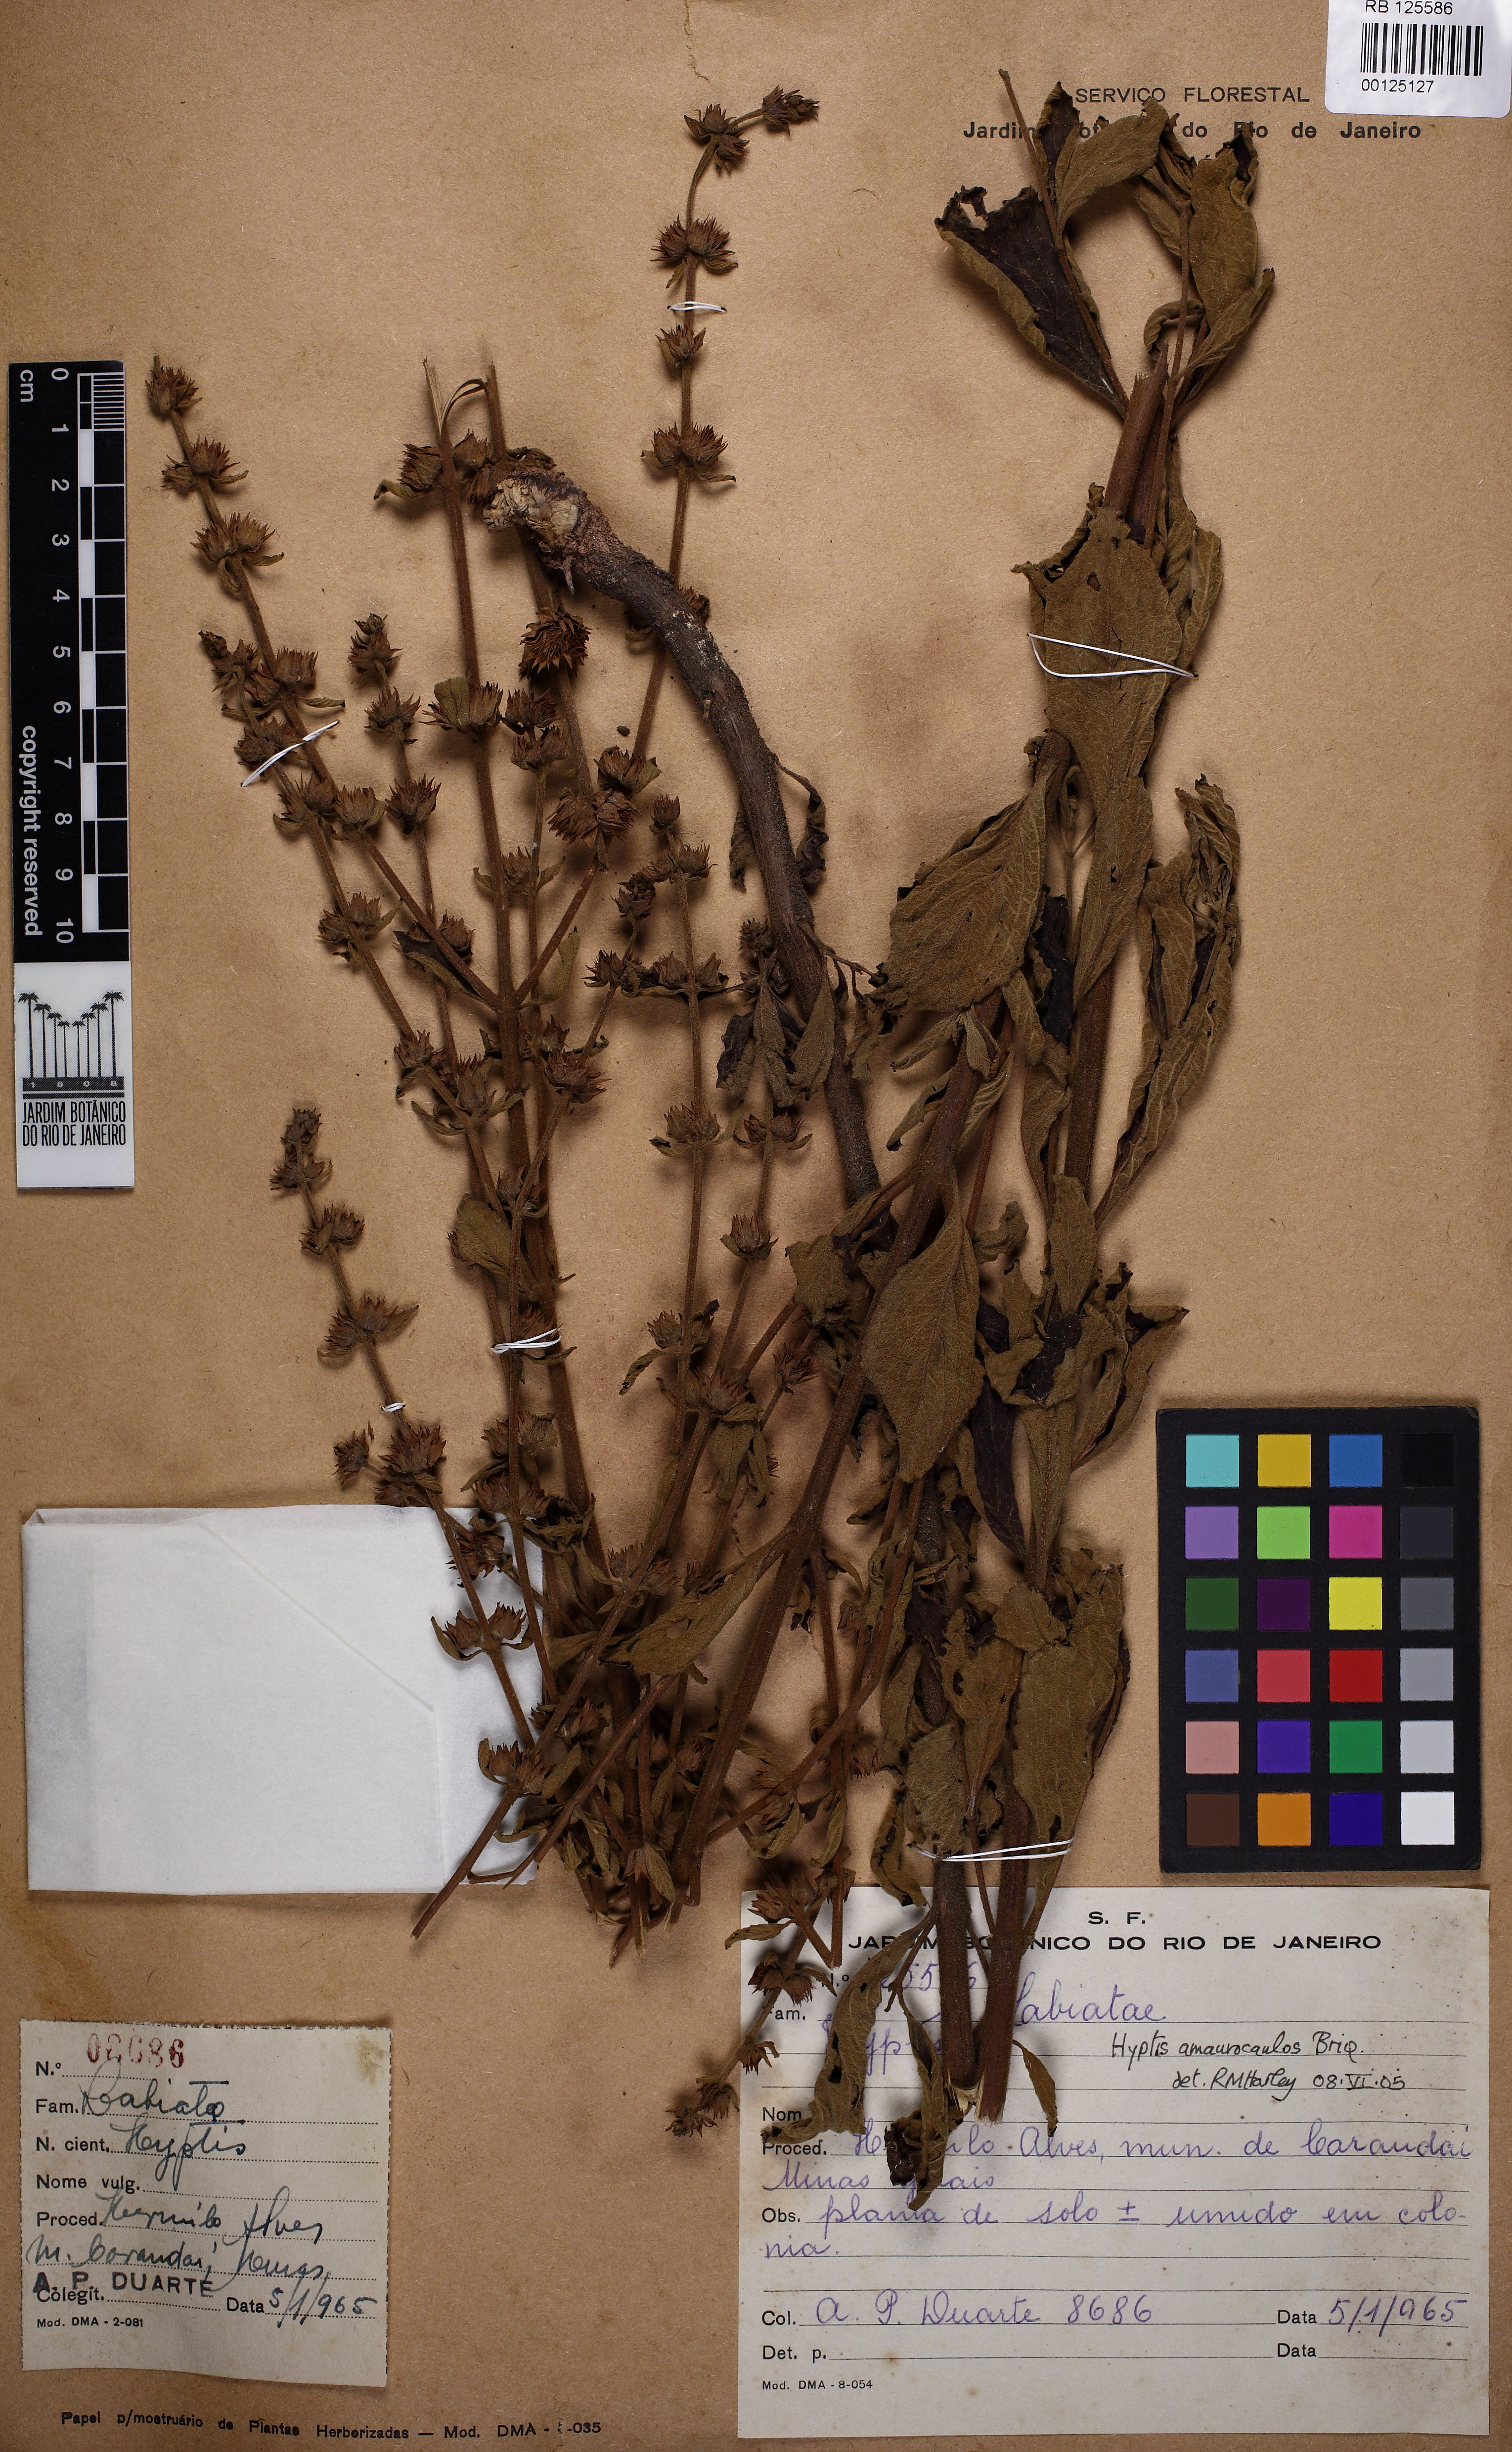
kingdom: Plantae
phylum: Tracheophyta
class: Magnoliopsida
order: Lamiales
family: Lamiaceae
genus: Hyptis
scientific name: Hyptis amaurocaulos
